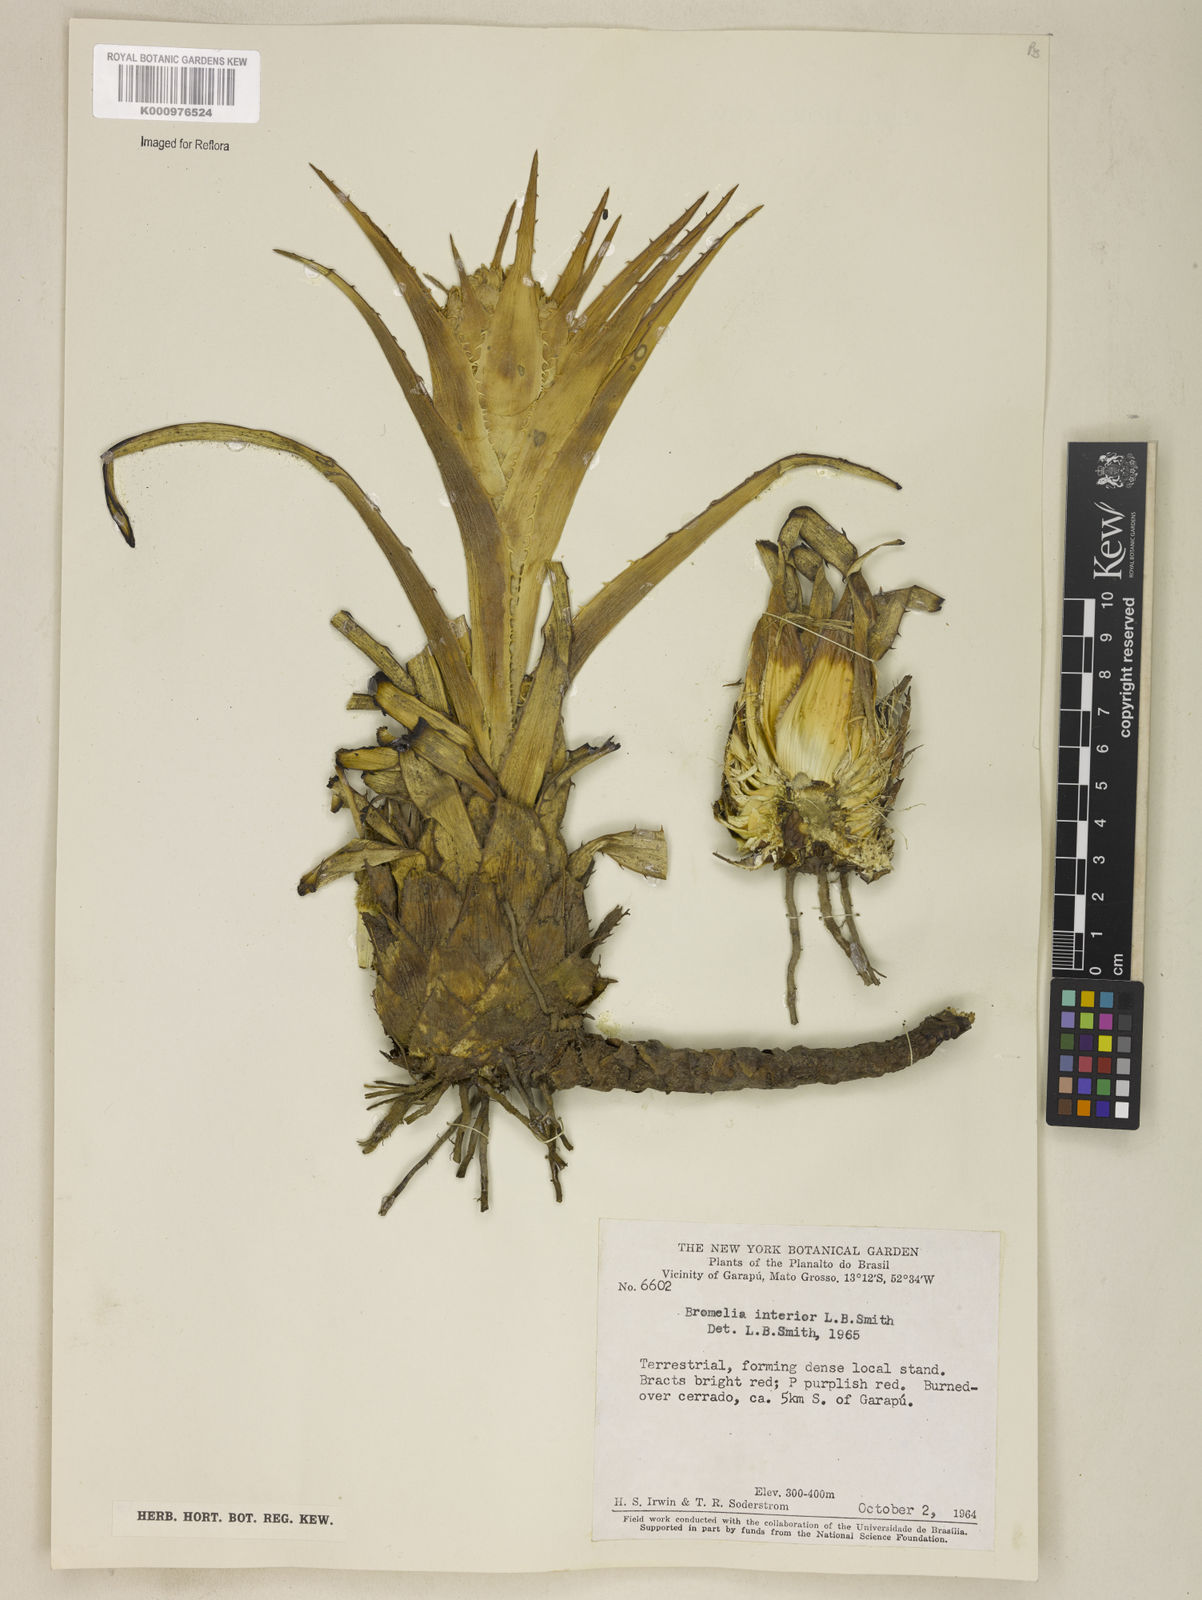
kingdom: Plantae
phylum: Tracheophyta
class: Liliopsida
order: Poales
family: Bromeliaceae
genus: Bromelia
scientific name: Bromelia interior
